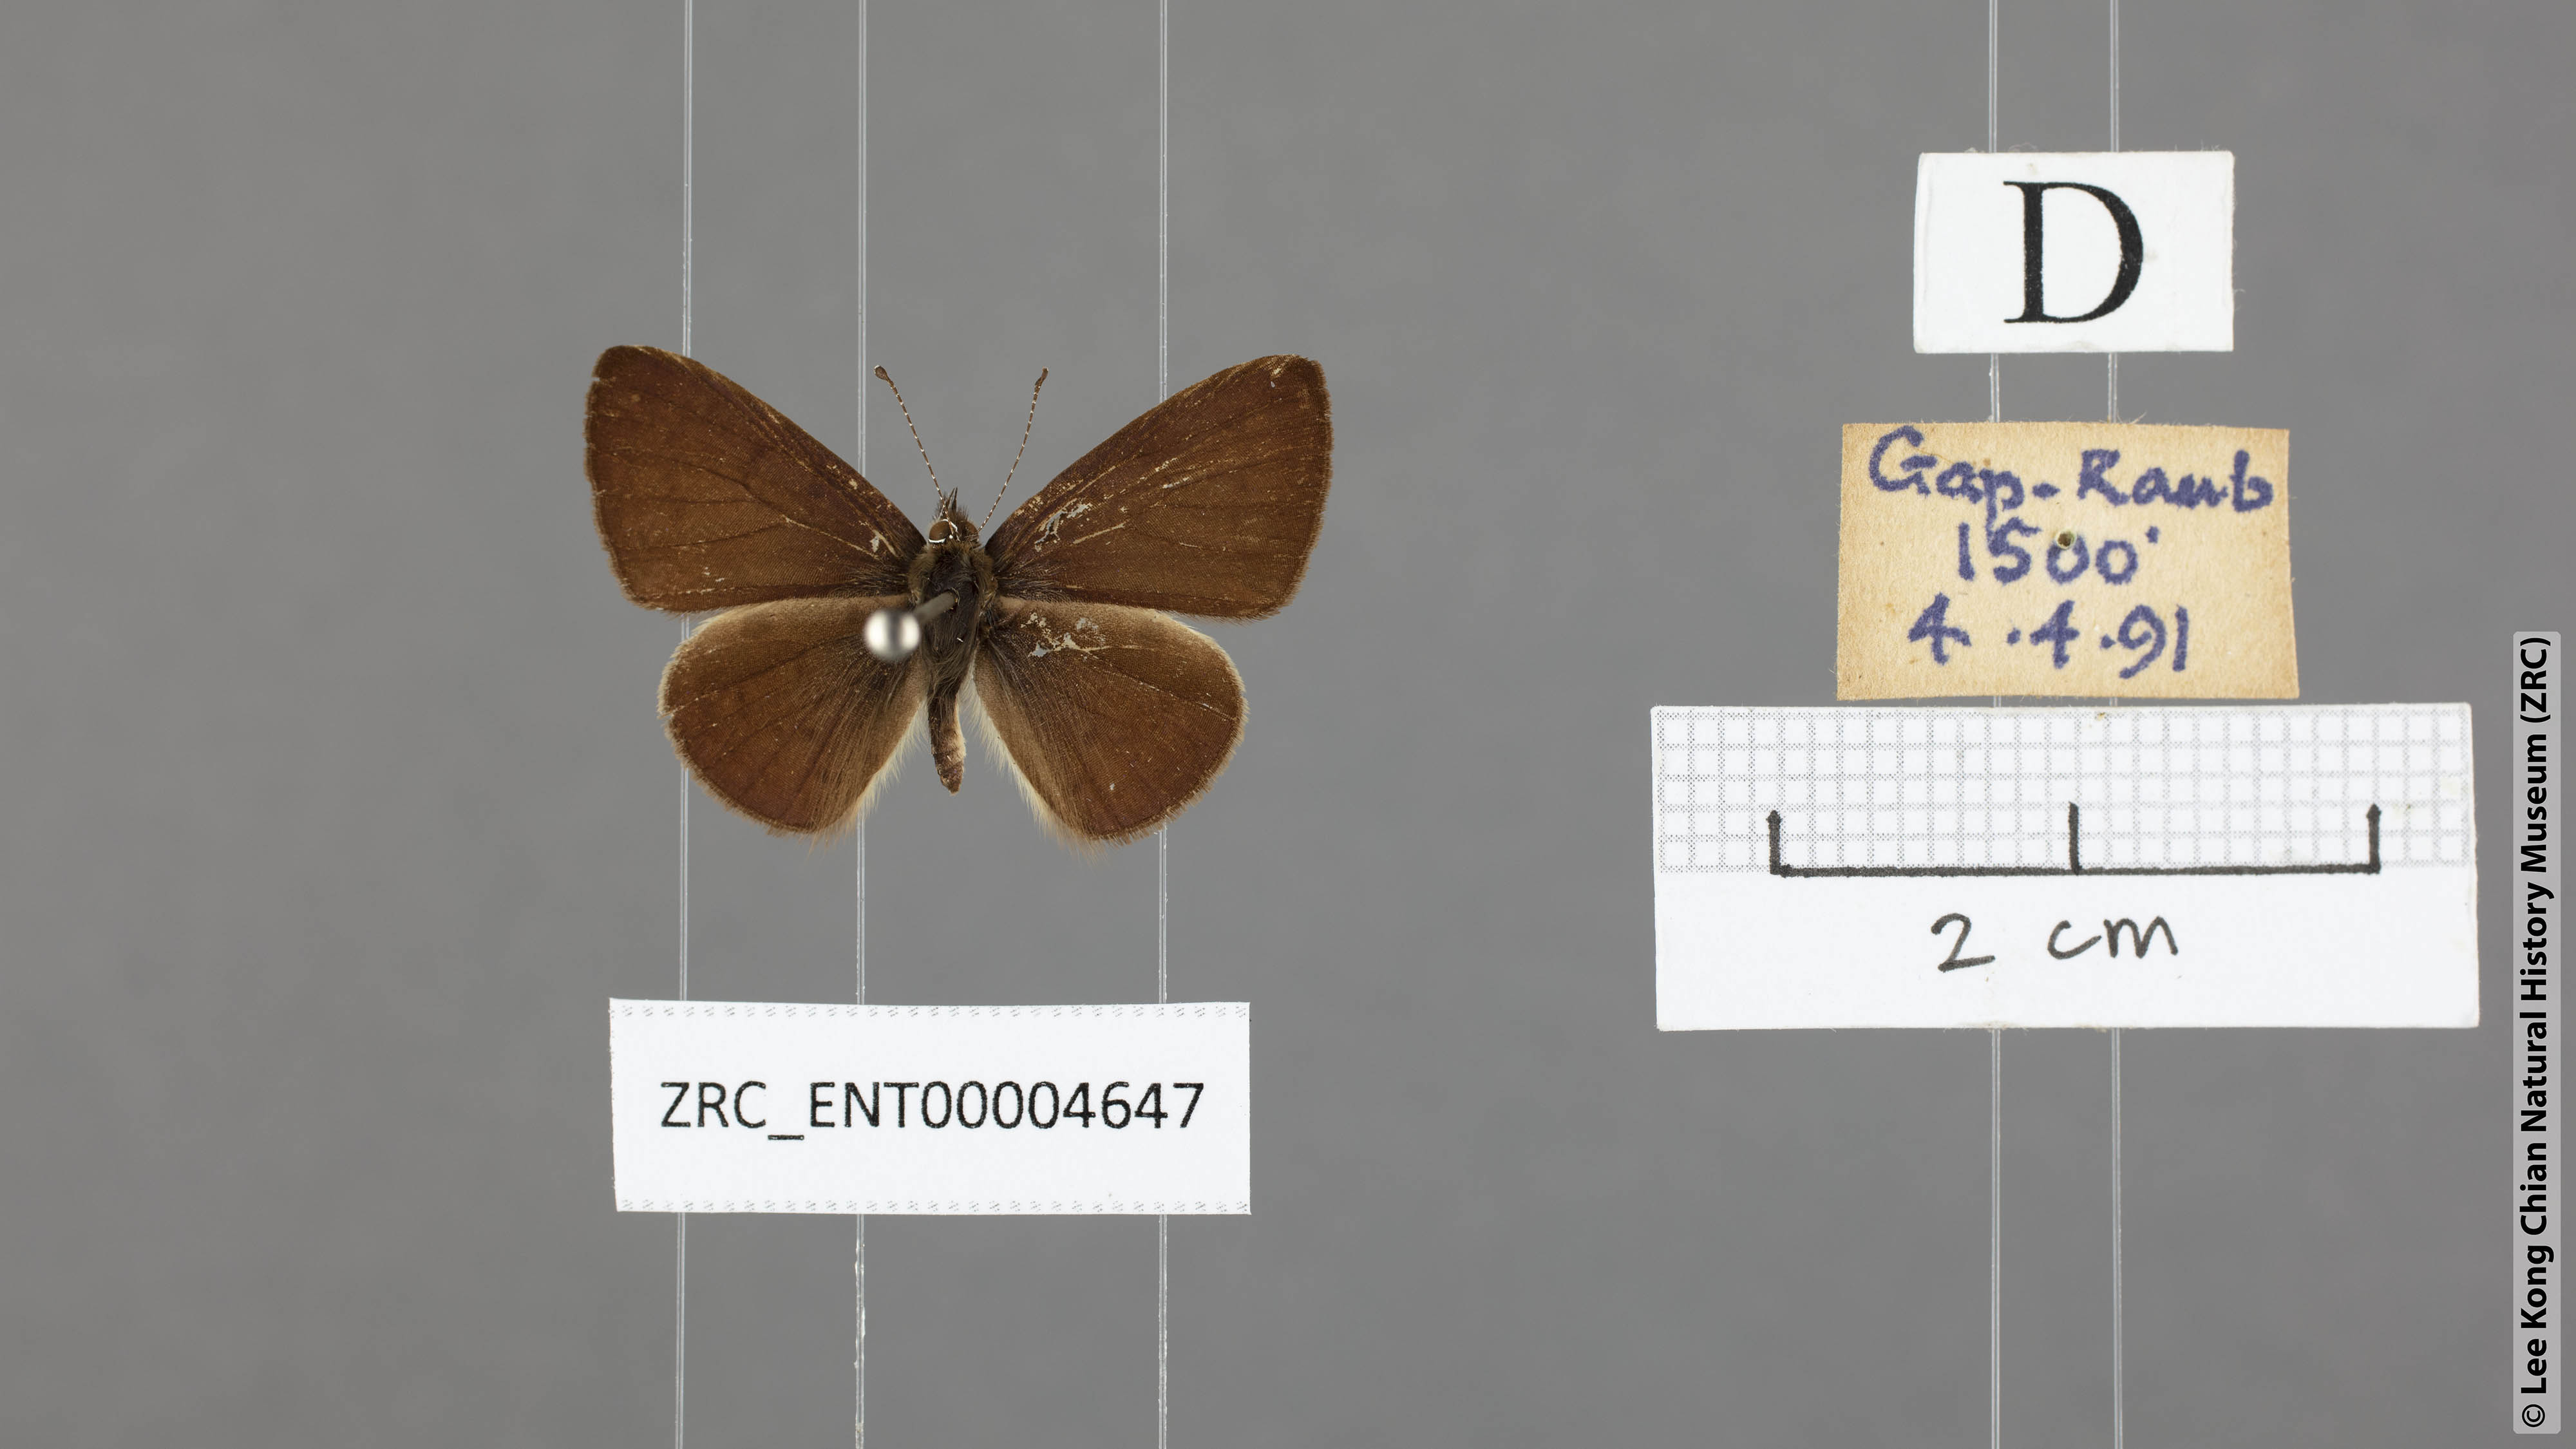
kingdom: Animalia
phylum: Arthropoda
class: Insecta
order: Lepidoptera
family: Lycaenidae
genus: Una
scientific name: Una usta
